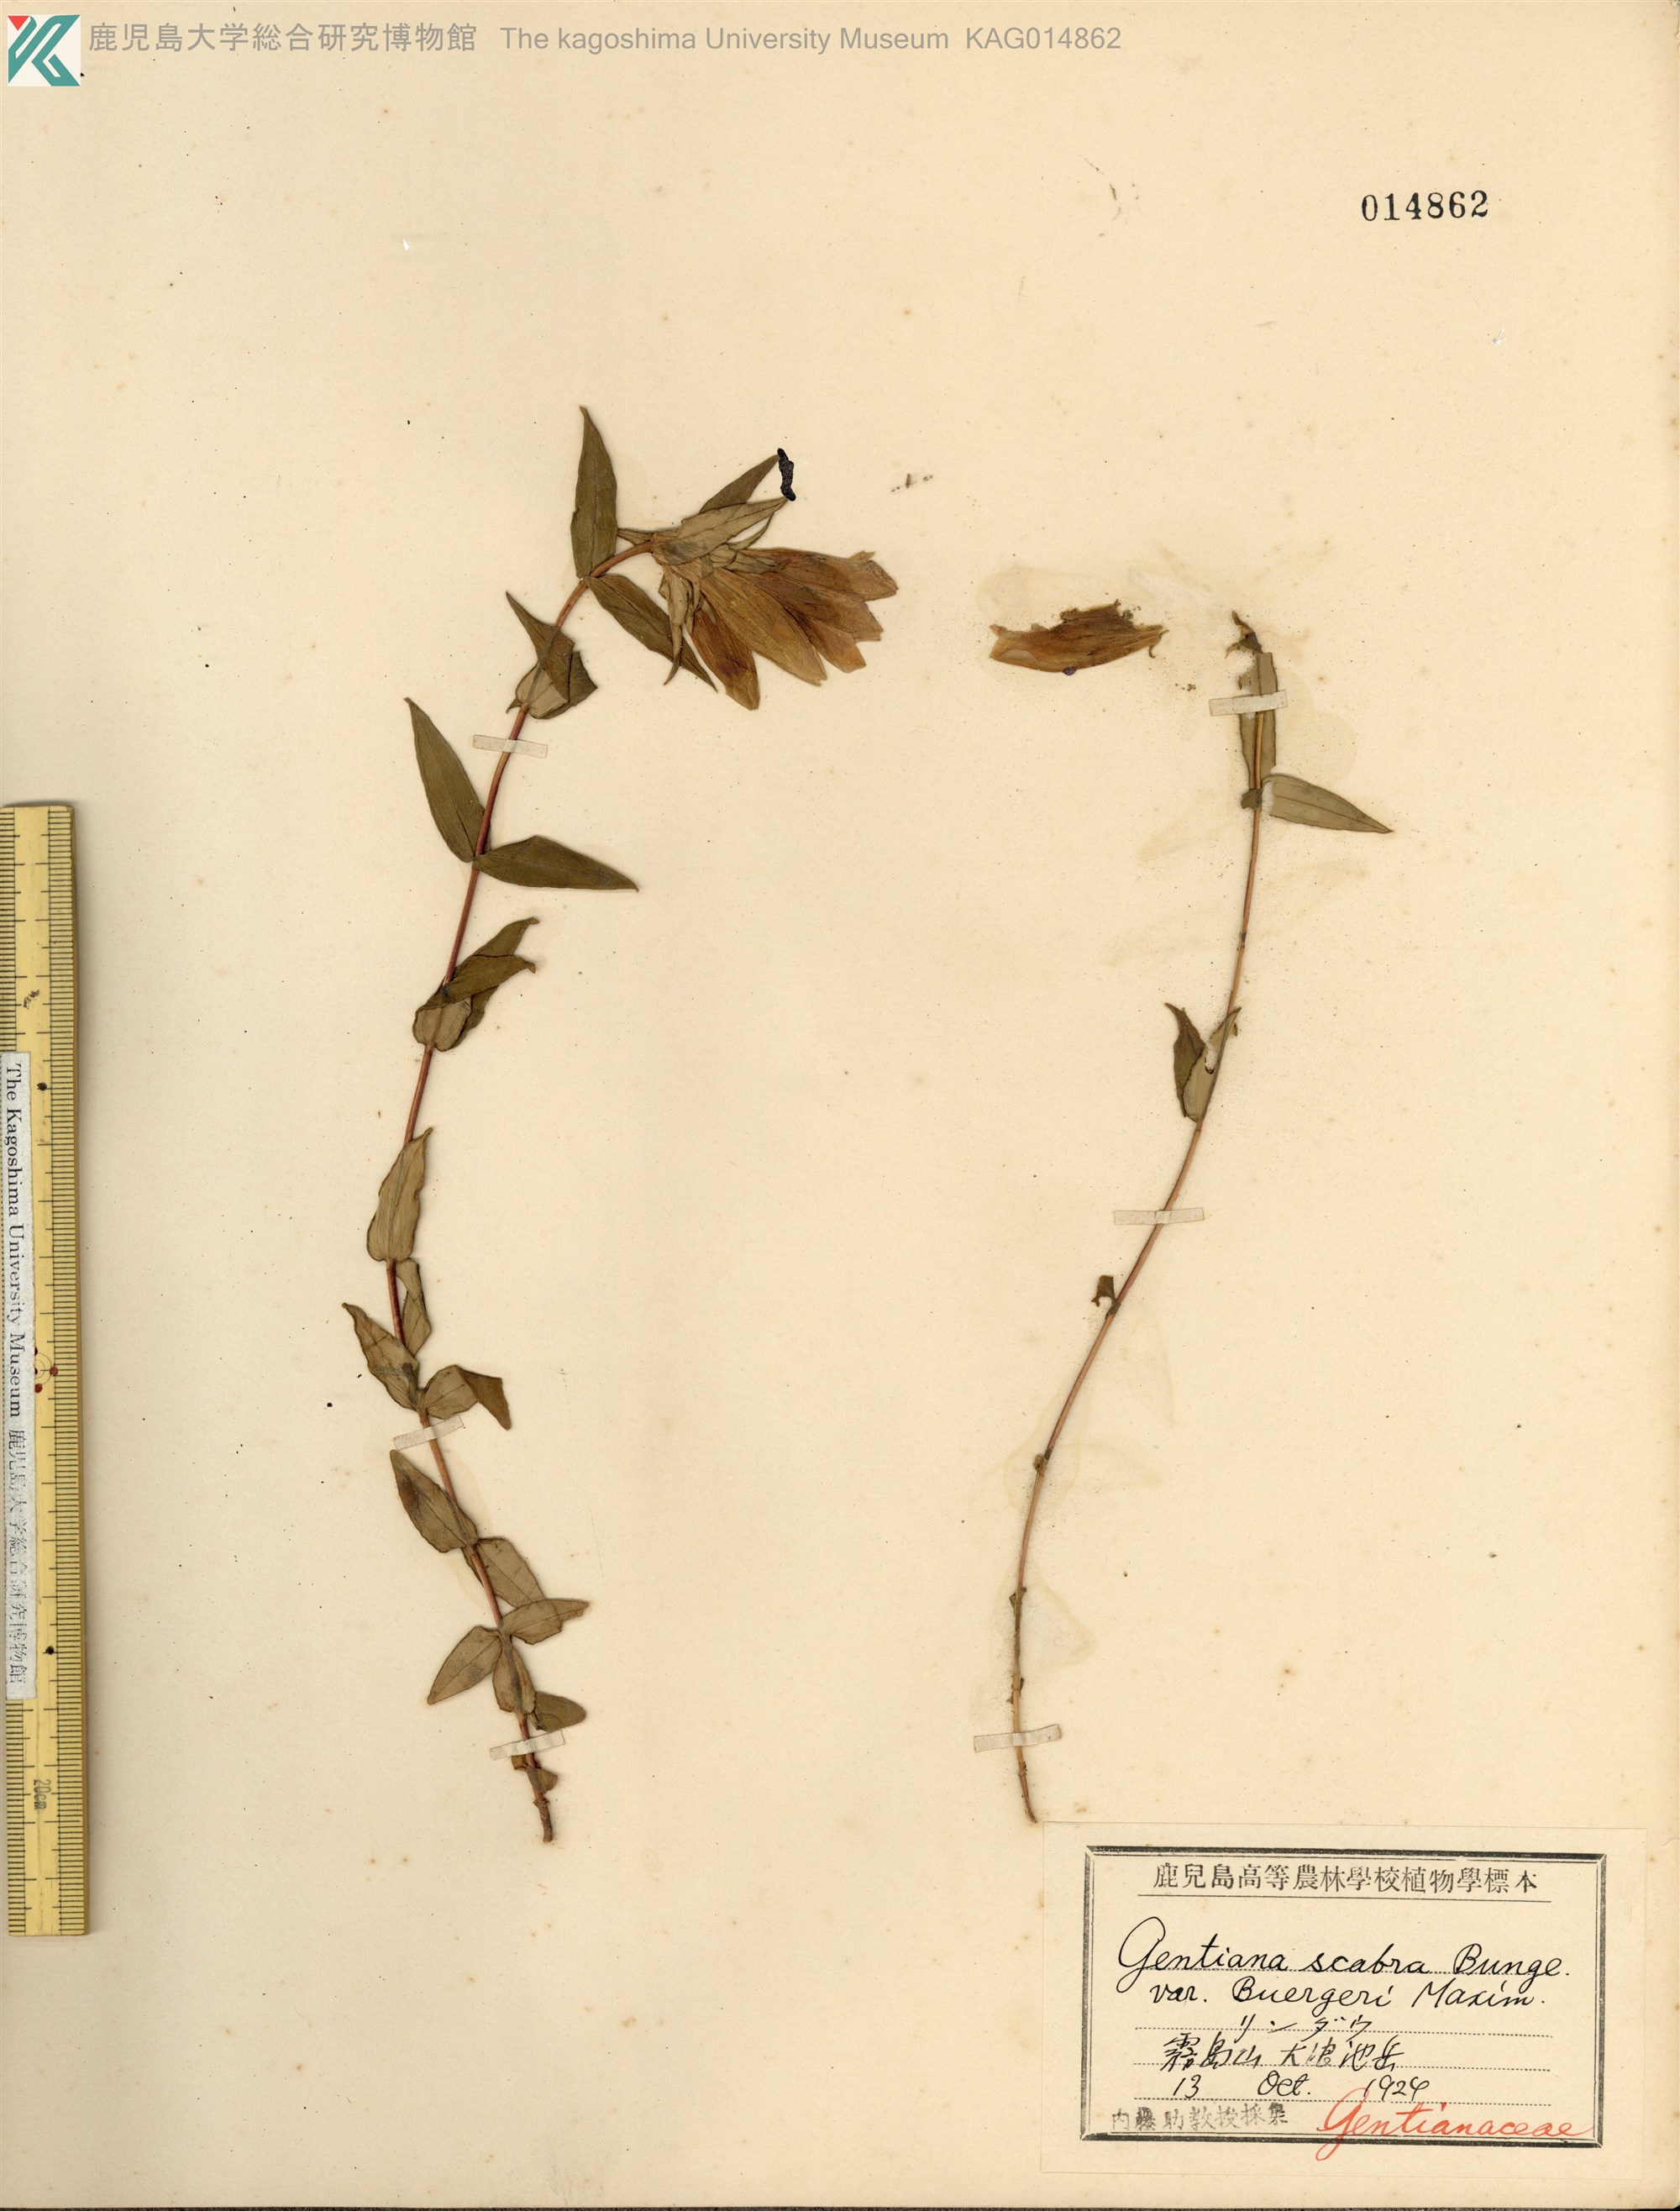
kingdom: Plantae
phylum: Tracheophyta
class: Magnoliopsida
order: Gentianales
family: Gentianaceae
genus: Gentiana
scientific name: Gentiana scabra
